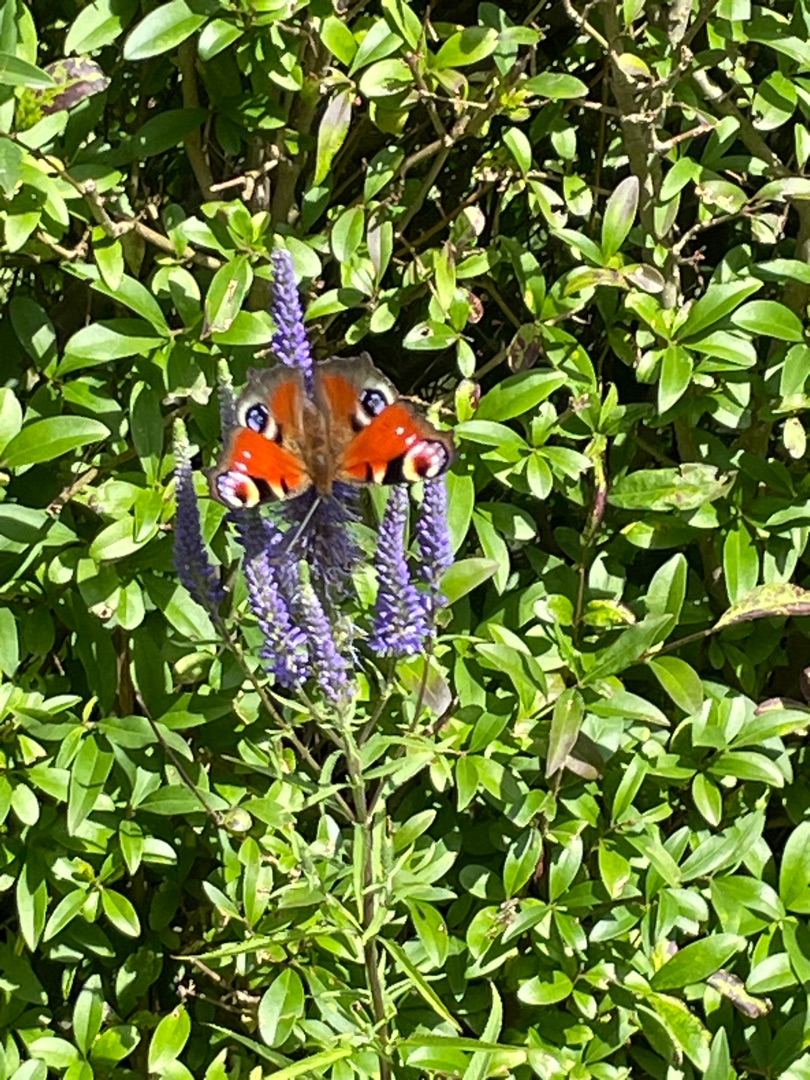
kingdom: Animalia
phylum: Arthropoda
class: Insecta
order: Lepidoptera
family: Nymphalidae
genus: Aglais
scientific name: Aglais io
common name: Dagpåfugleøje
